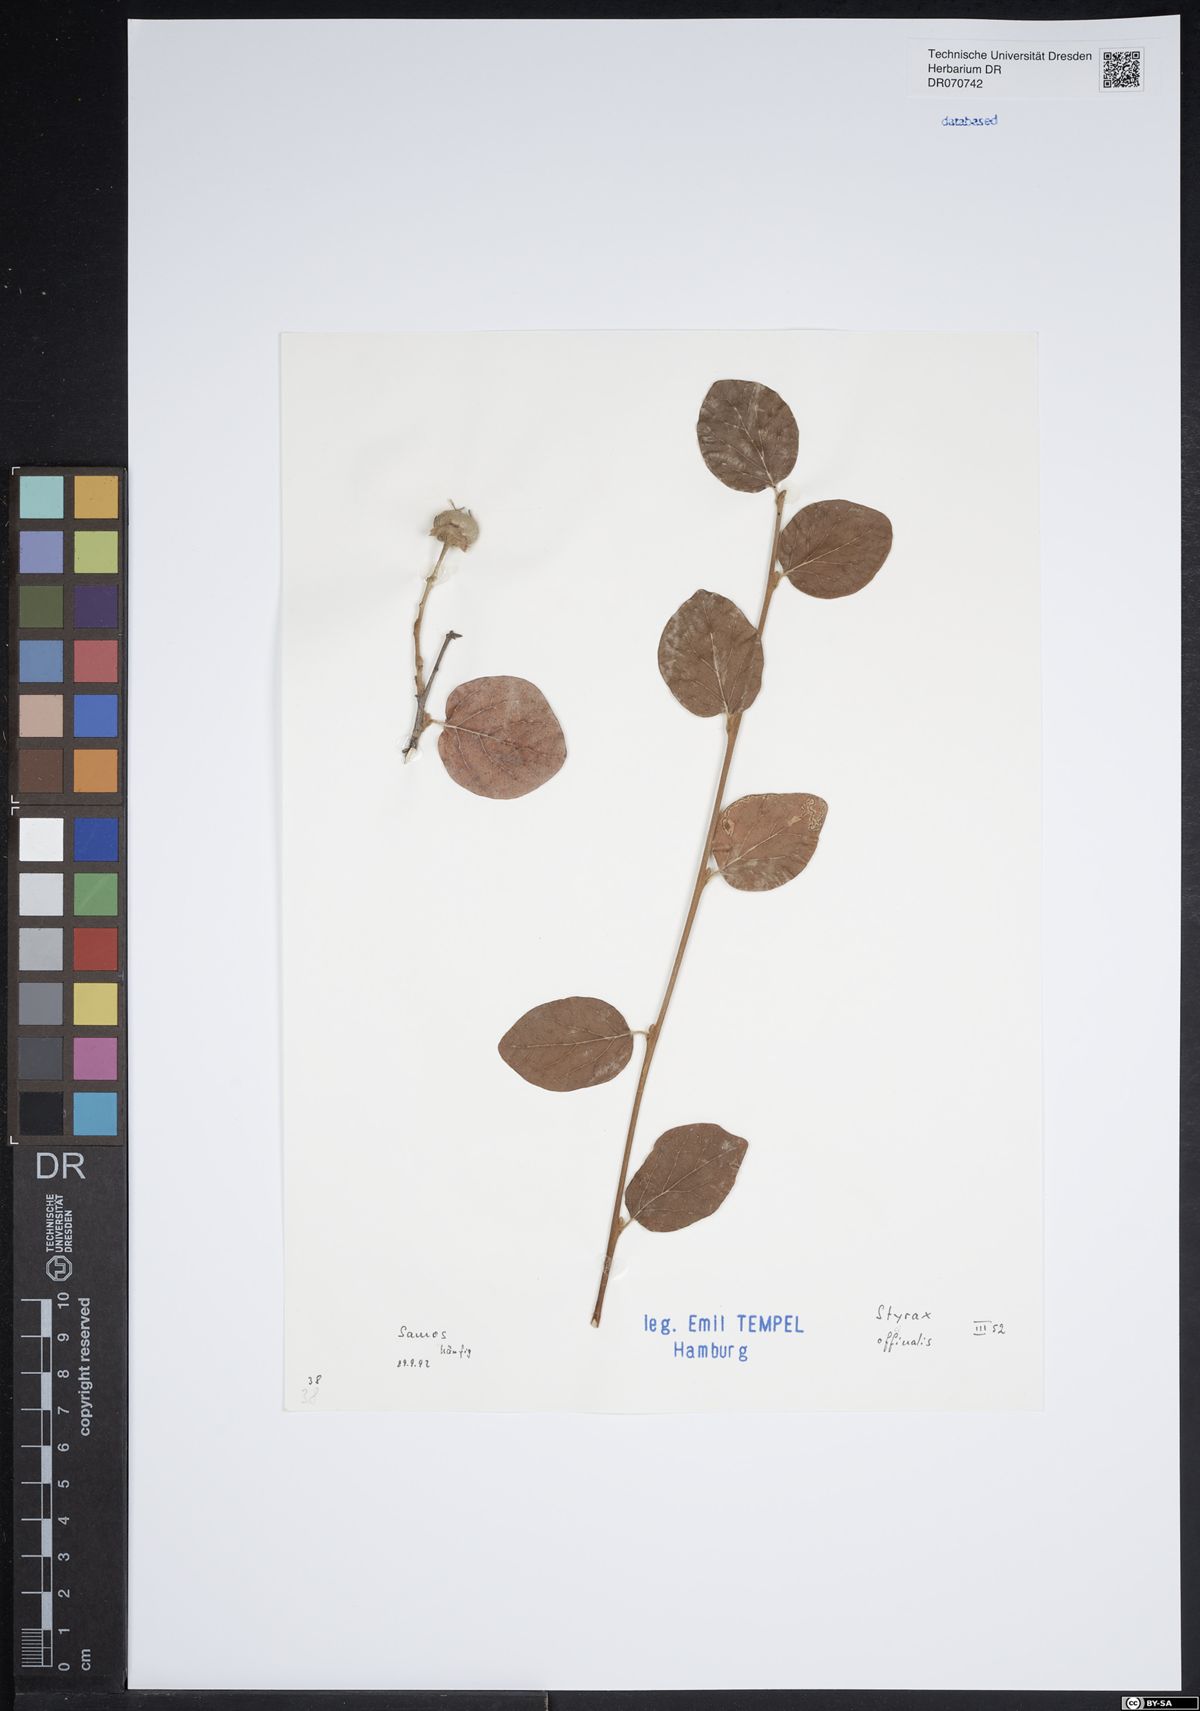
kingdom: Plantae
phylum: Tracheophyta
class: Magnoliopsida
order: Ericales
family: Styracaceae
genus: Styrax
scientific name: Styrax officinalis
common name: Storax
